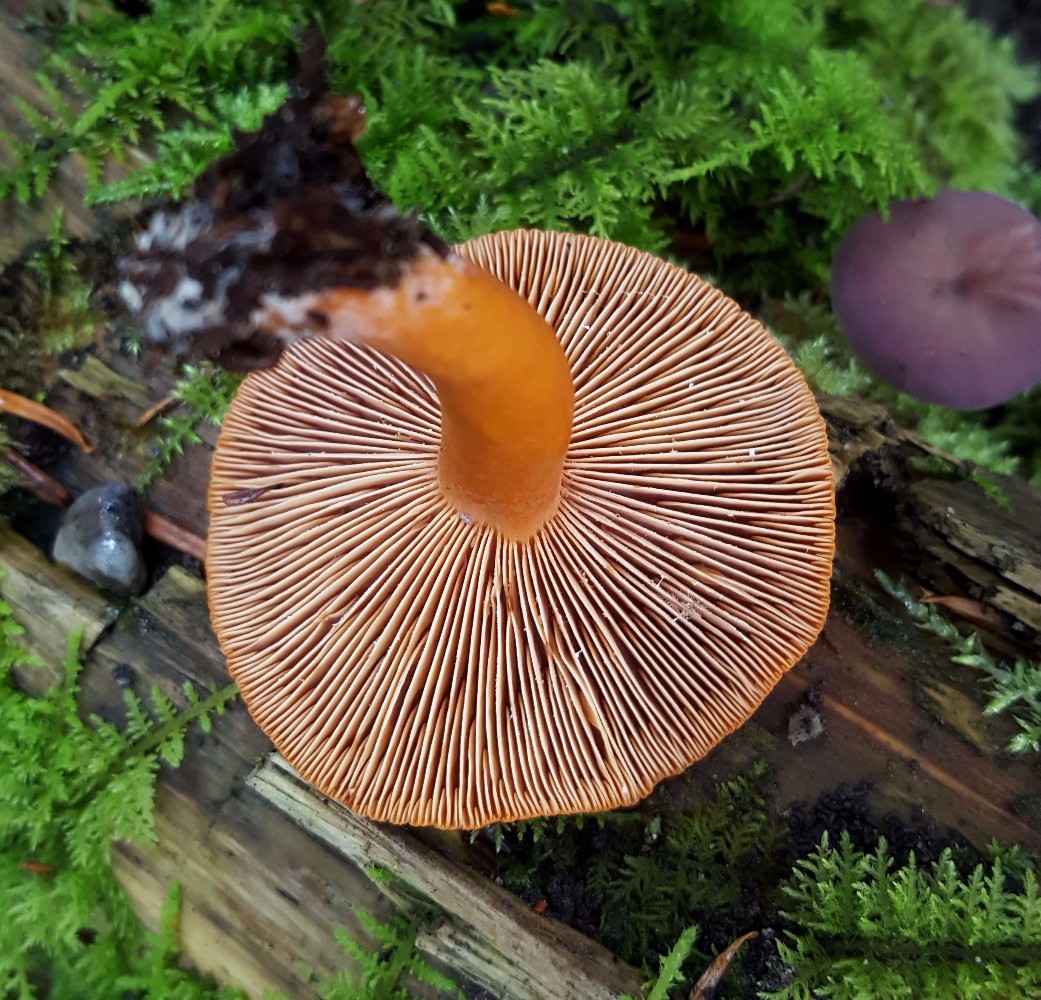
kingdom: Fungi
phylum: Basidiomycota
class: Agaricomycetes
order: Russulales
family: Russulaceae
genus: Lactarius
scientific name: Lactarius aurantiacus
